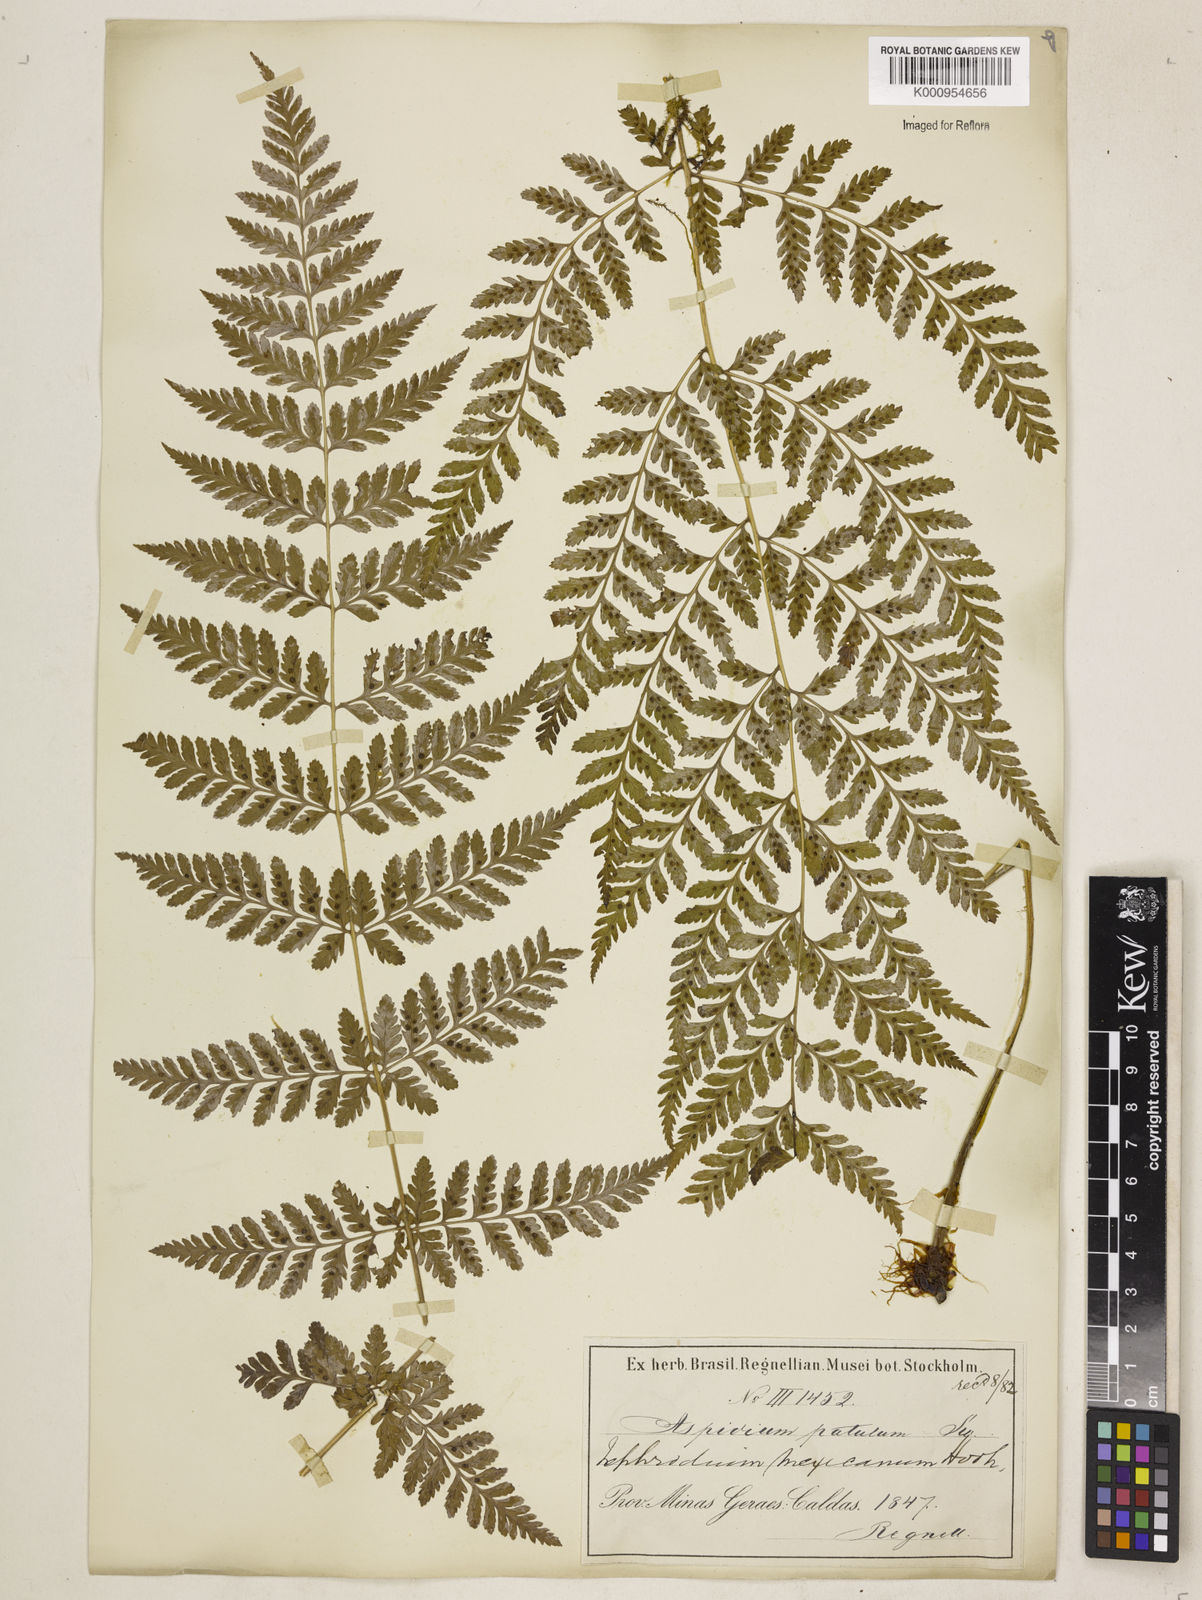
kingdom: Plantae
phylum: Tracheophyta
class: Polypodiopsida
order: Polypodiales
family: Dryopteridaceae
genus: Dryopteris
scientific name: Dryopteris patula
